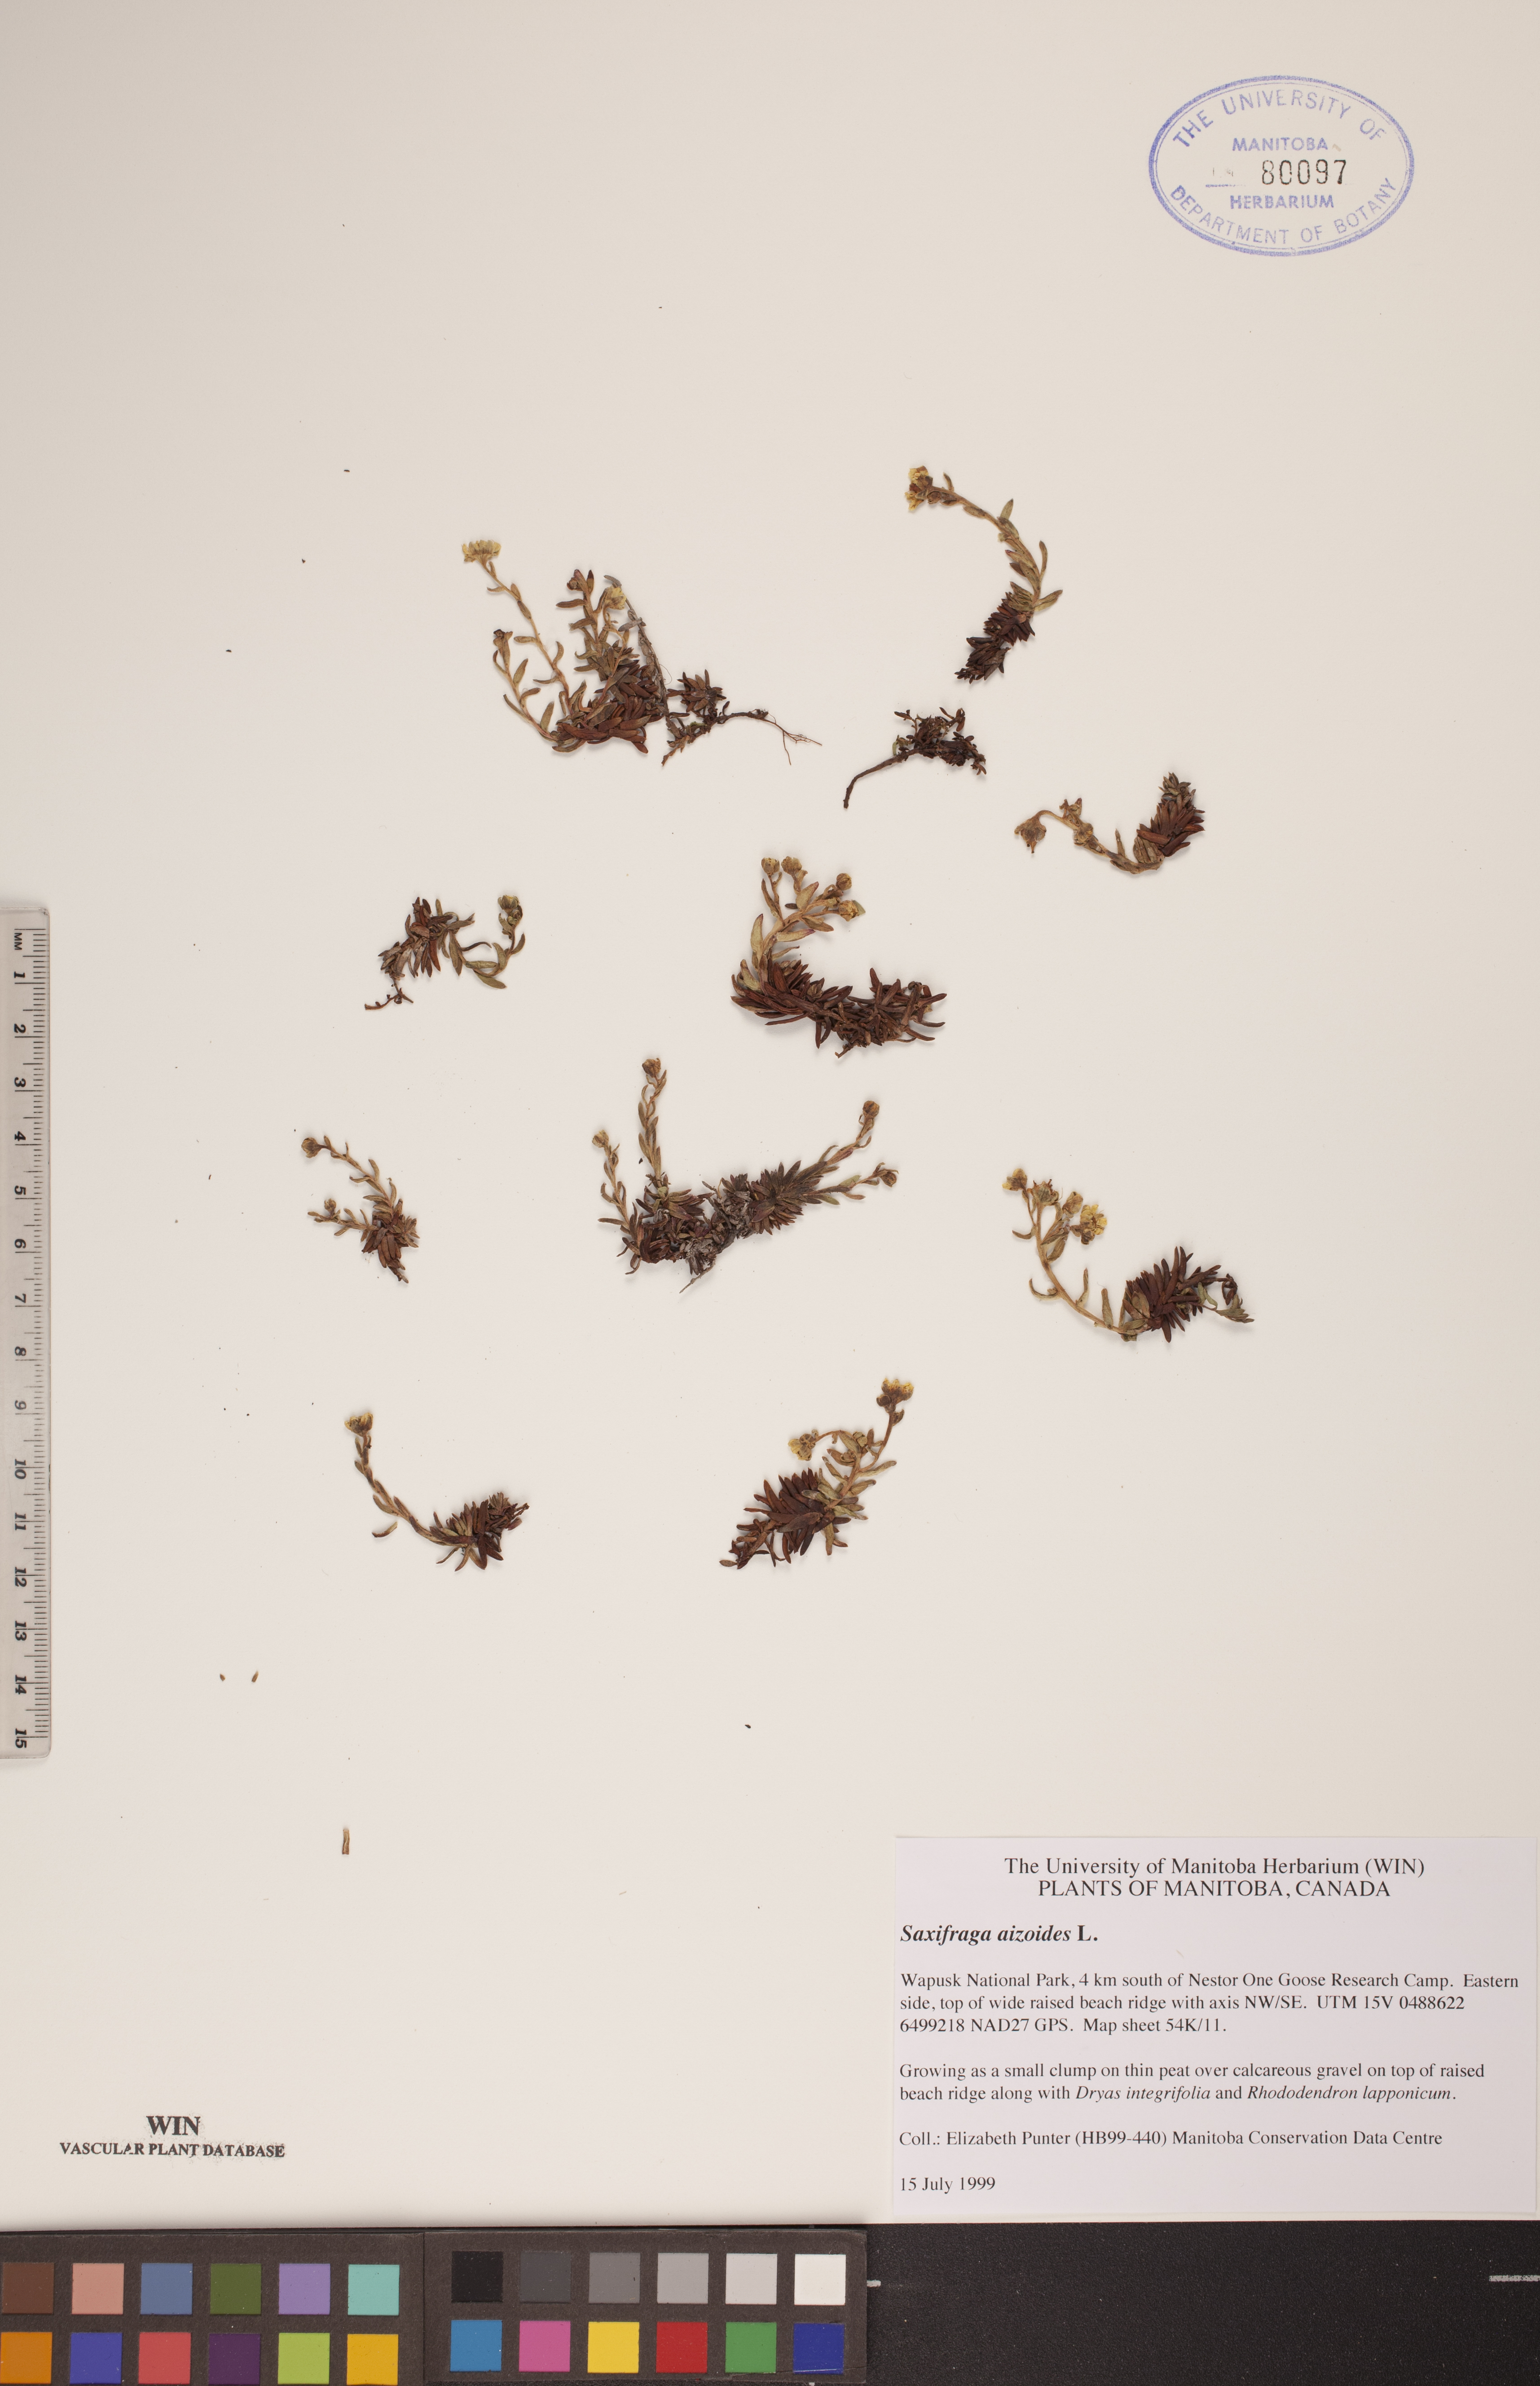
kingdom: Plantae
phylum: Tracheophyta
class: Magnoliopsida
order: Saxifragales
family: Saxifragaceae
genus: Saxifraga
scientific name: Saxifraga aizoides
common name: Yellow mountain saxifrage
